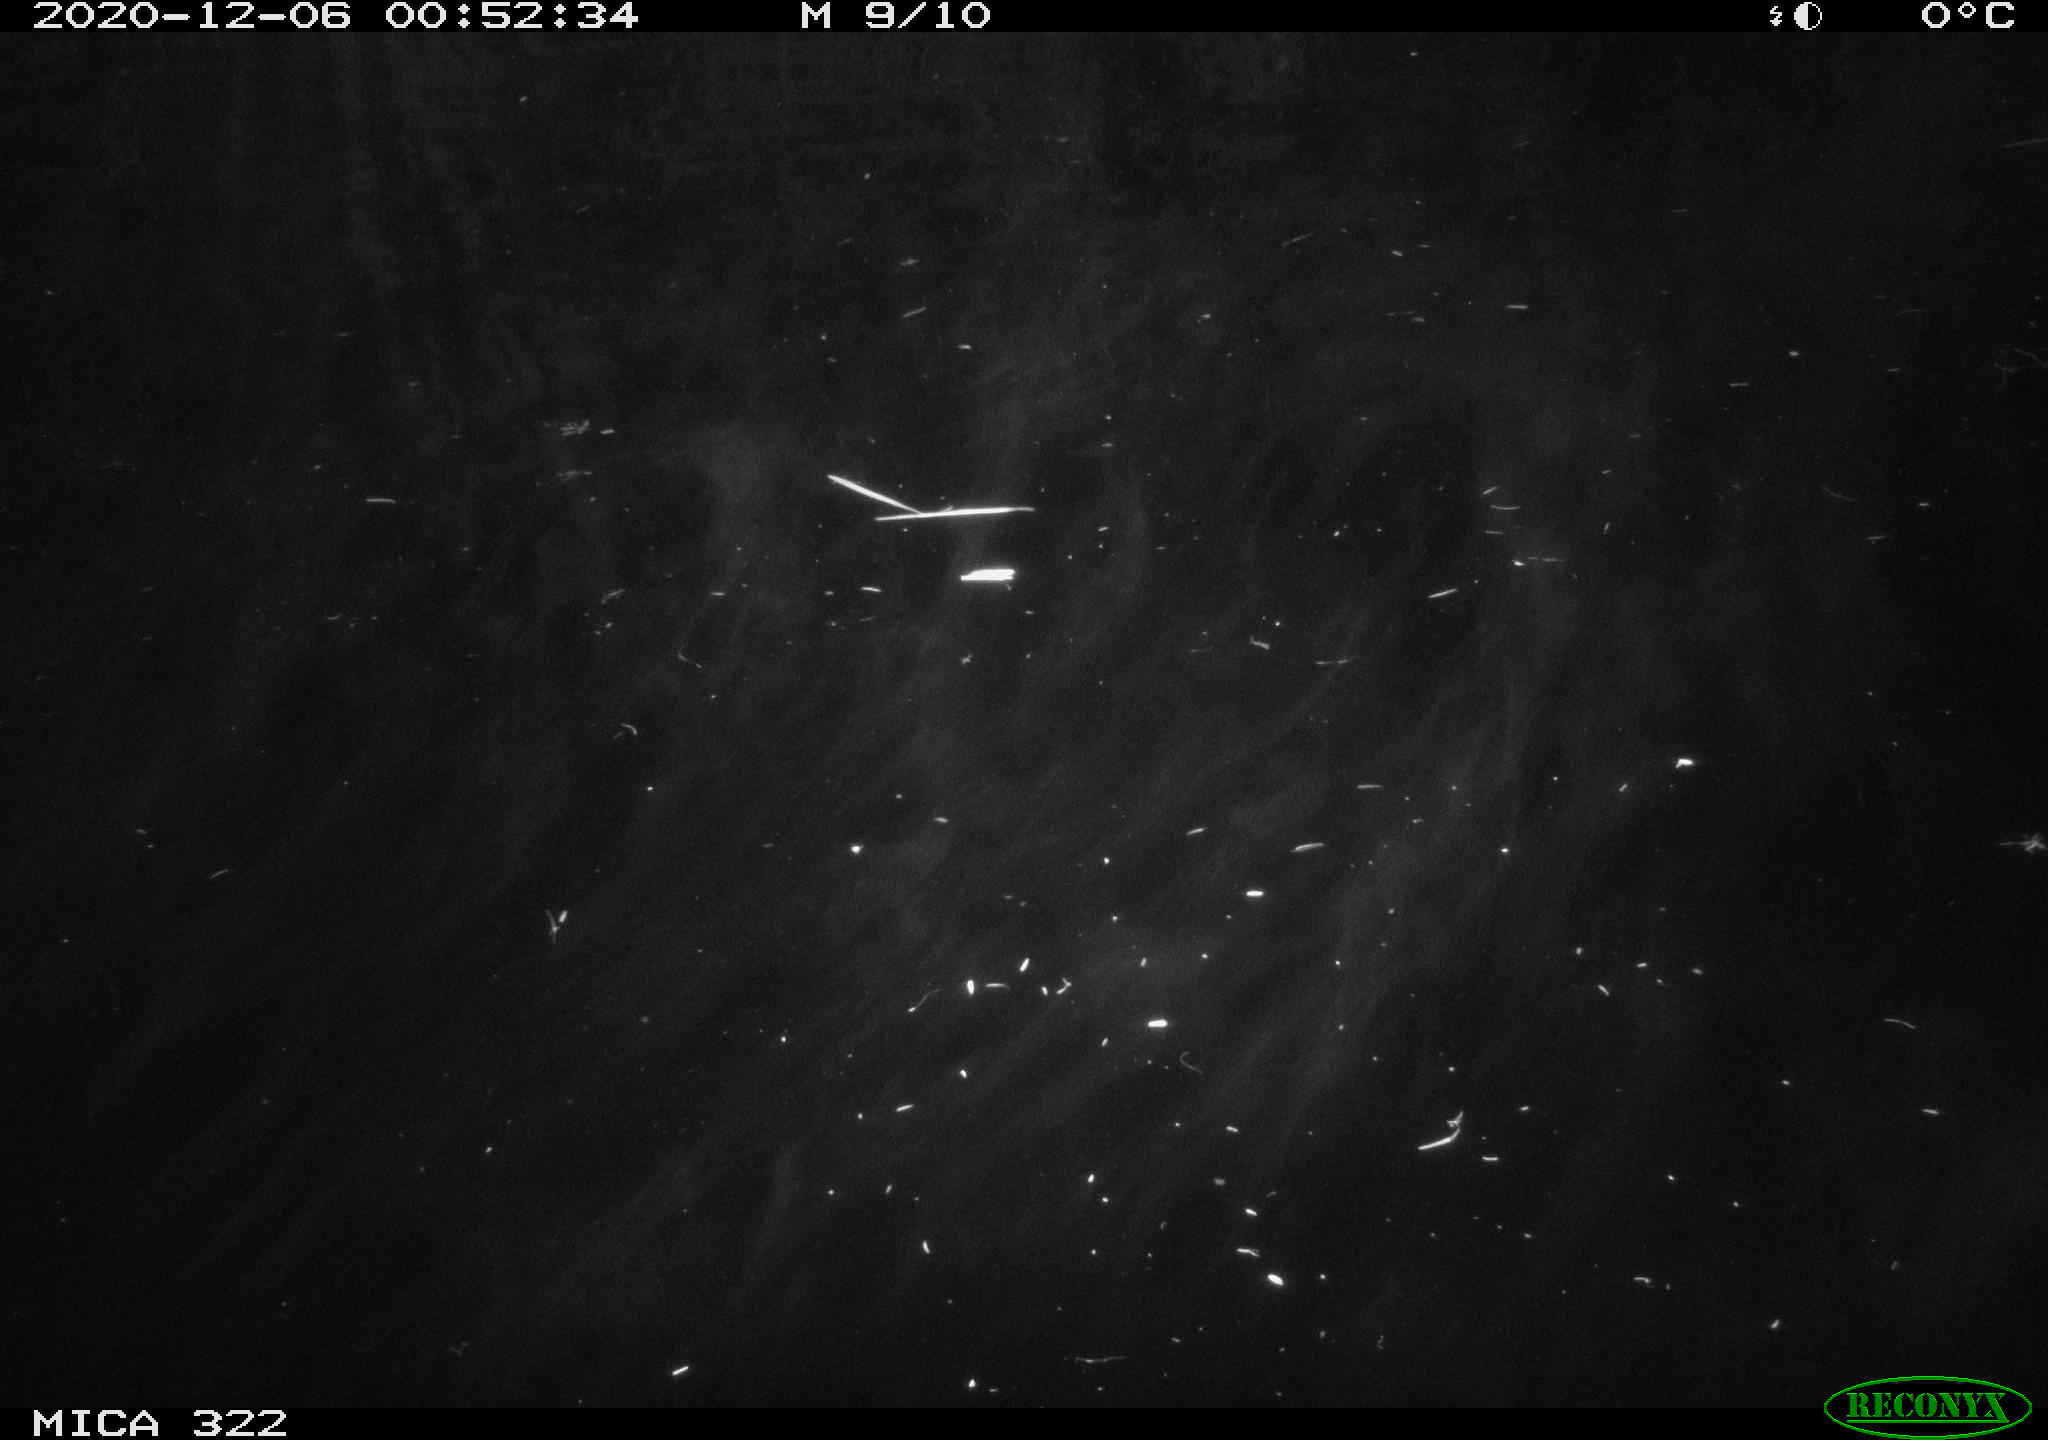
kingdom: Animalia
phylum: Chordata
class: Aves
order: Anseriformes
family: Anatidae
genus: Mareca
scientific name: Mareca strepera
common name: Gadwall
